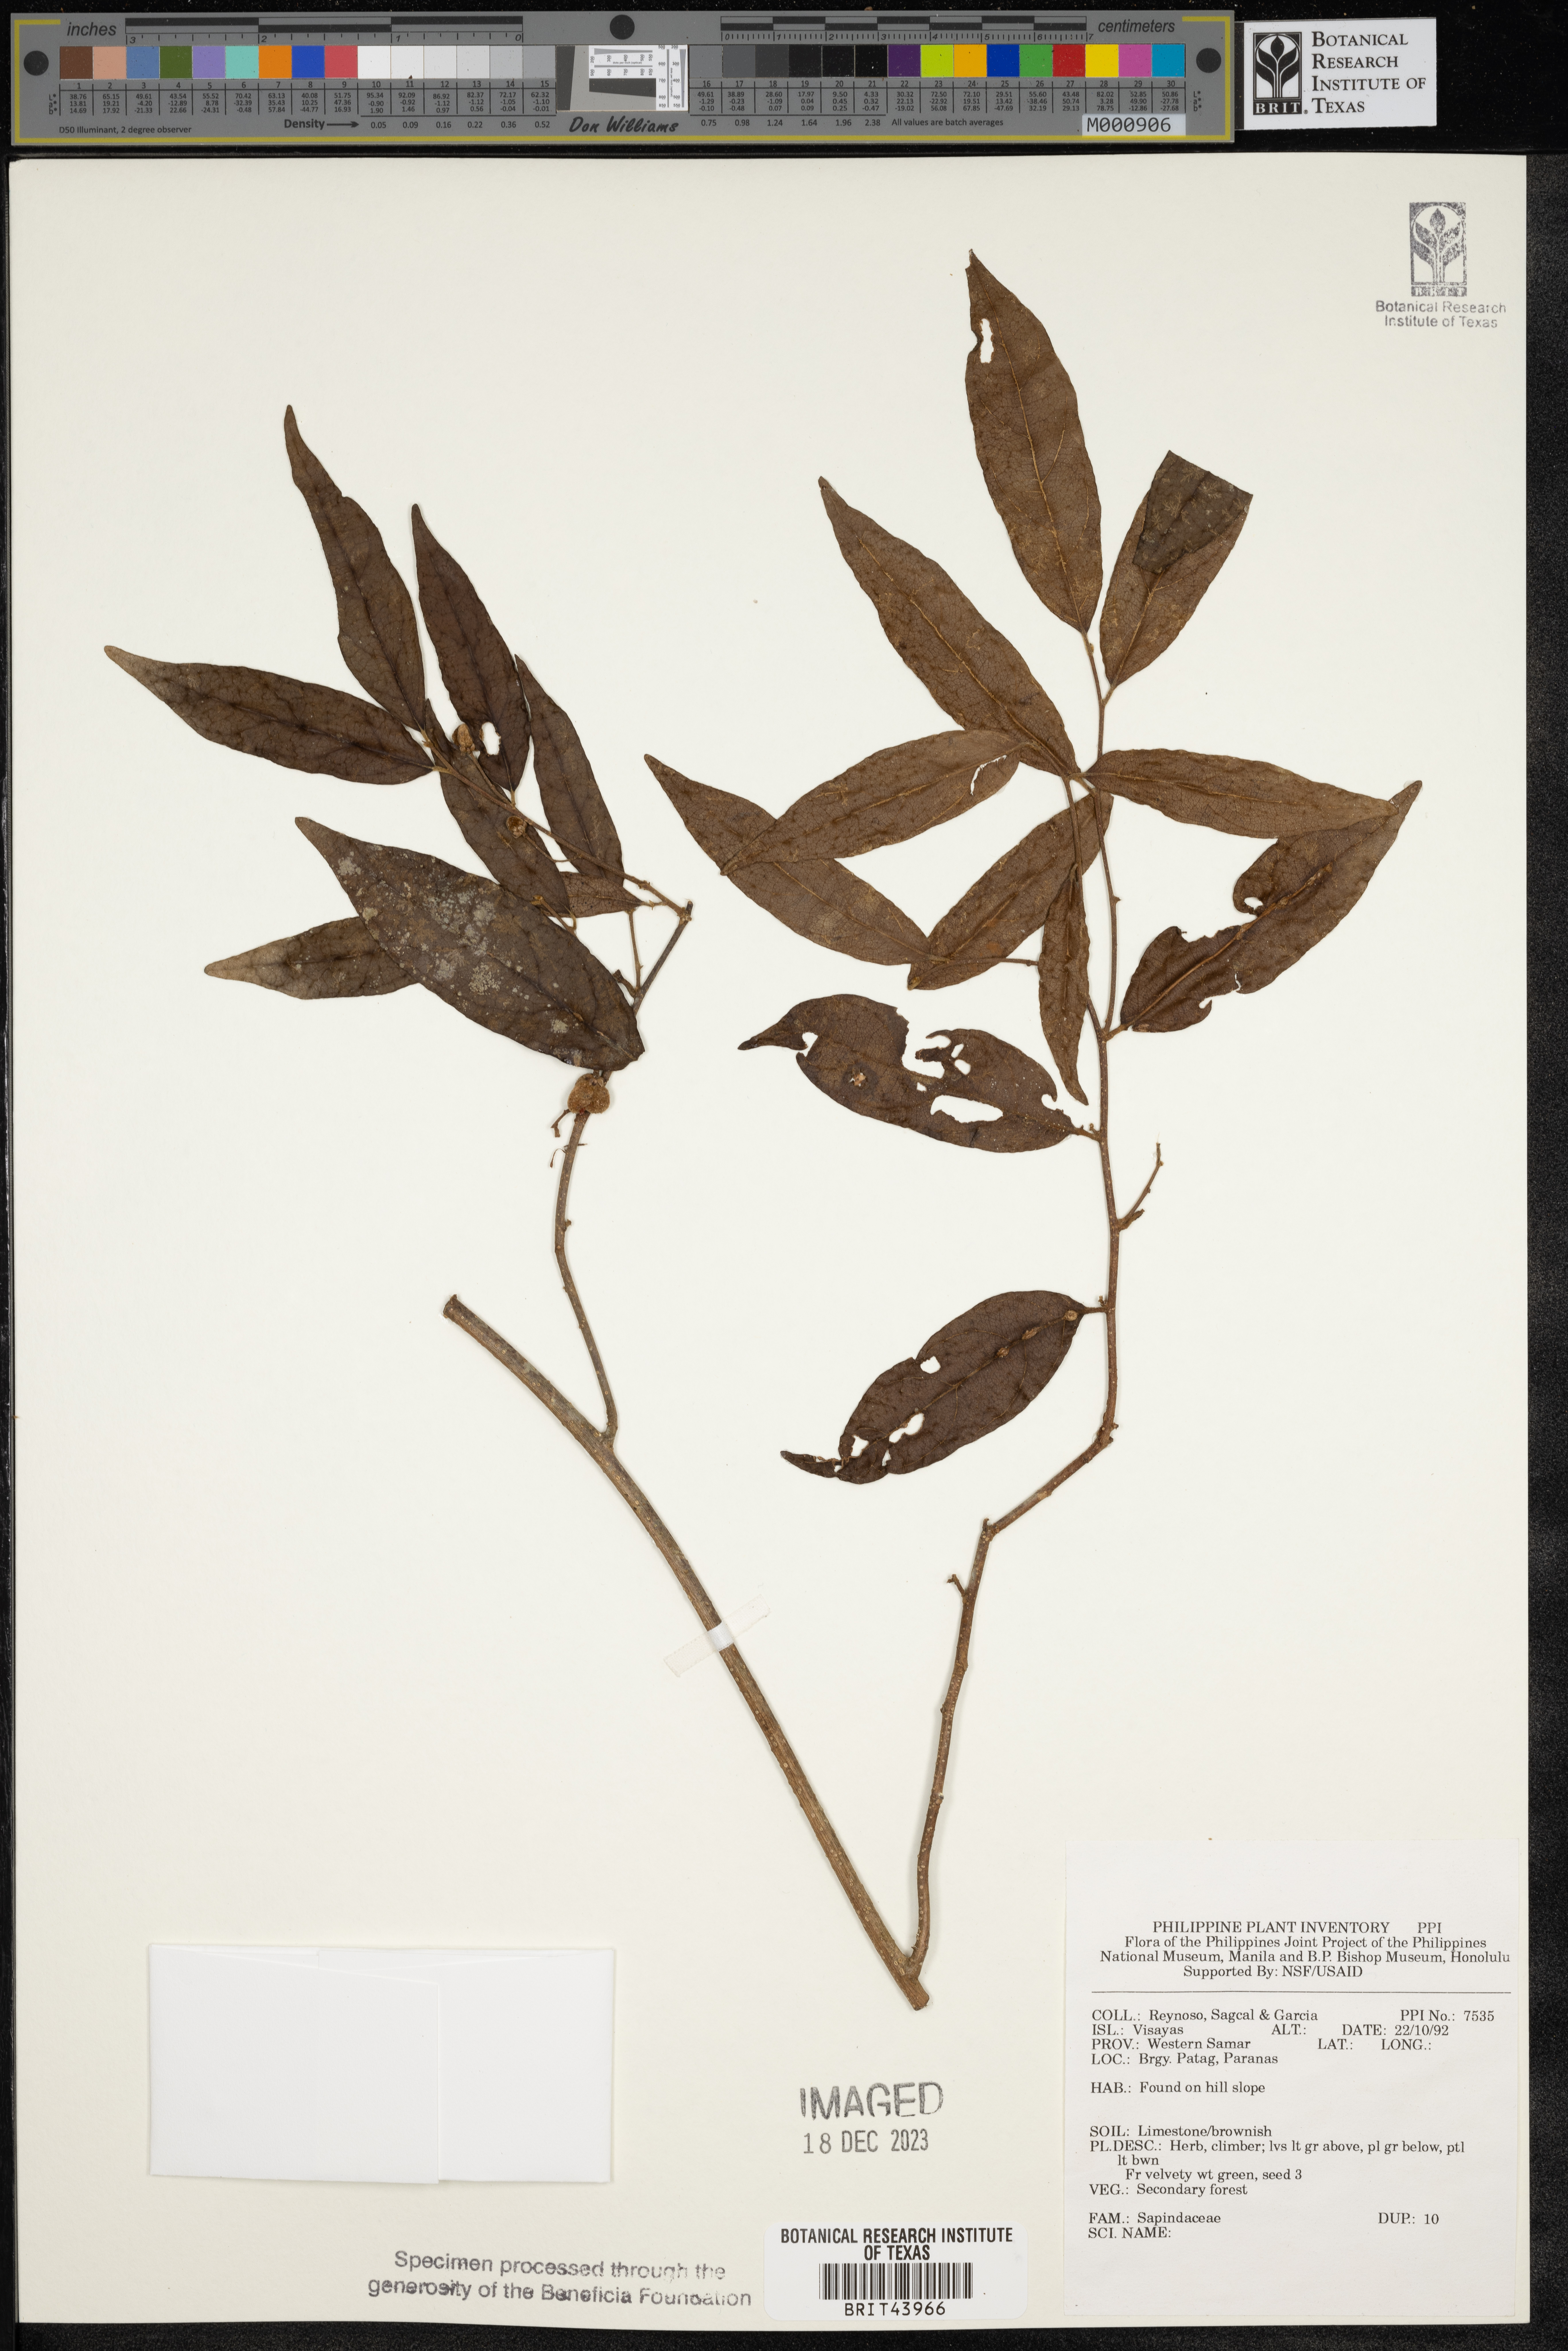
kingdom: Plantae
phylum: Tracheophyta
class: Magnoliopsida
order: Sapindales
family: Sapindaceae
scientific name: Sapindaceae
